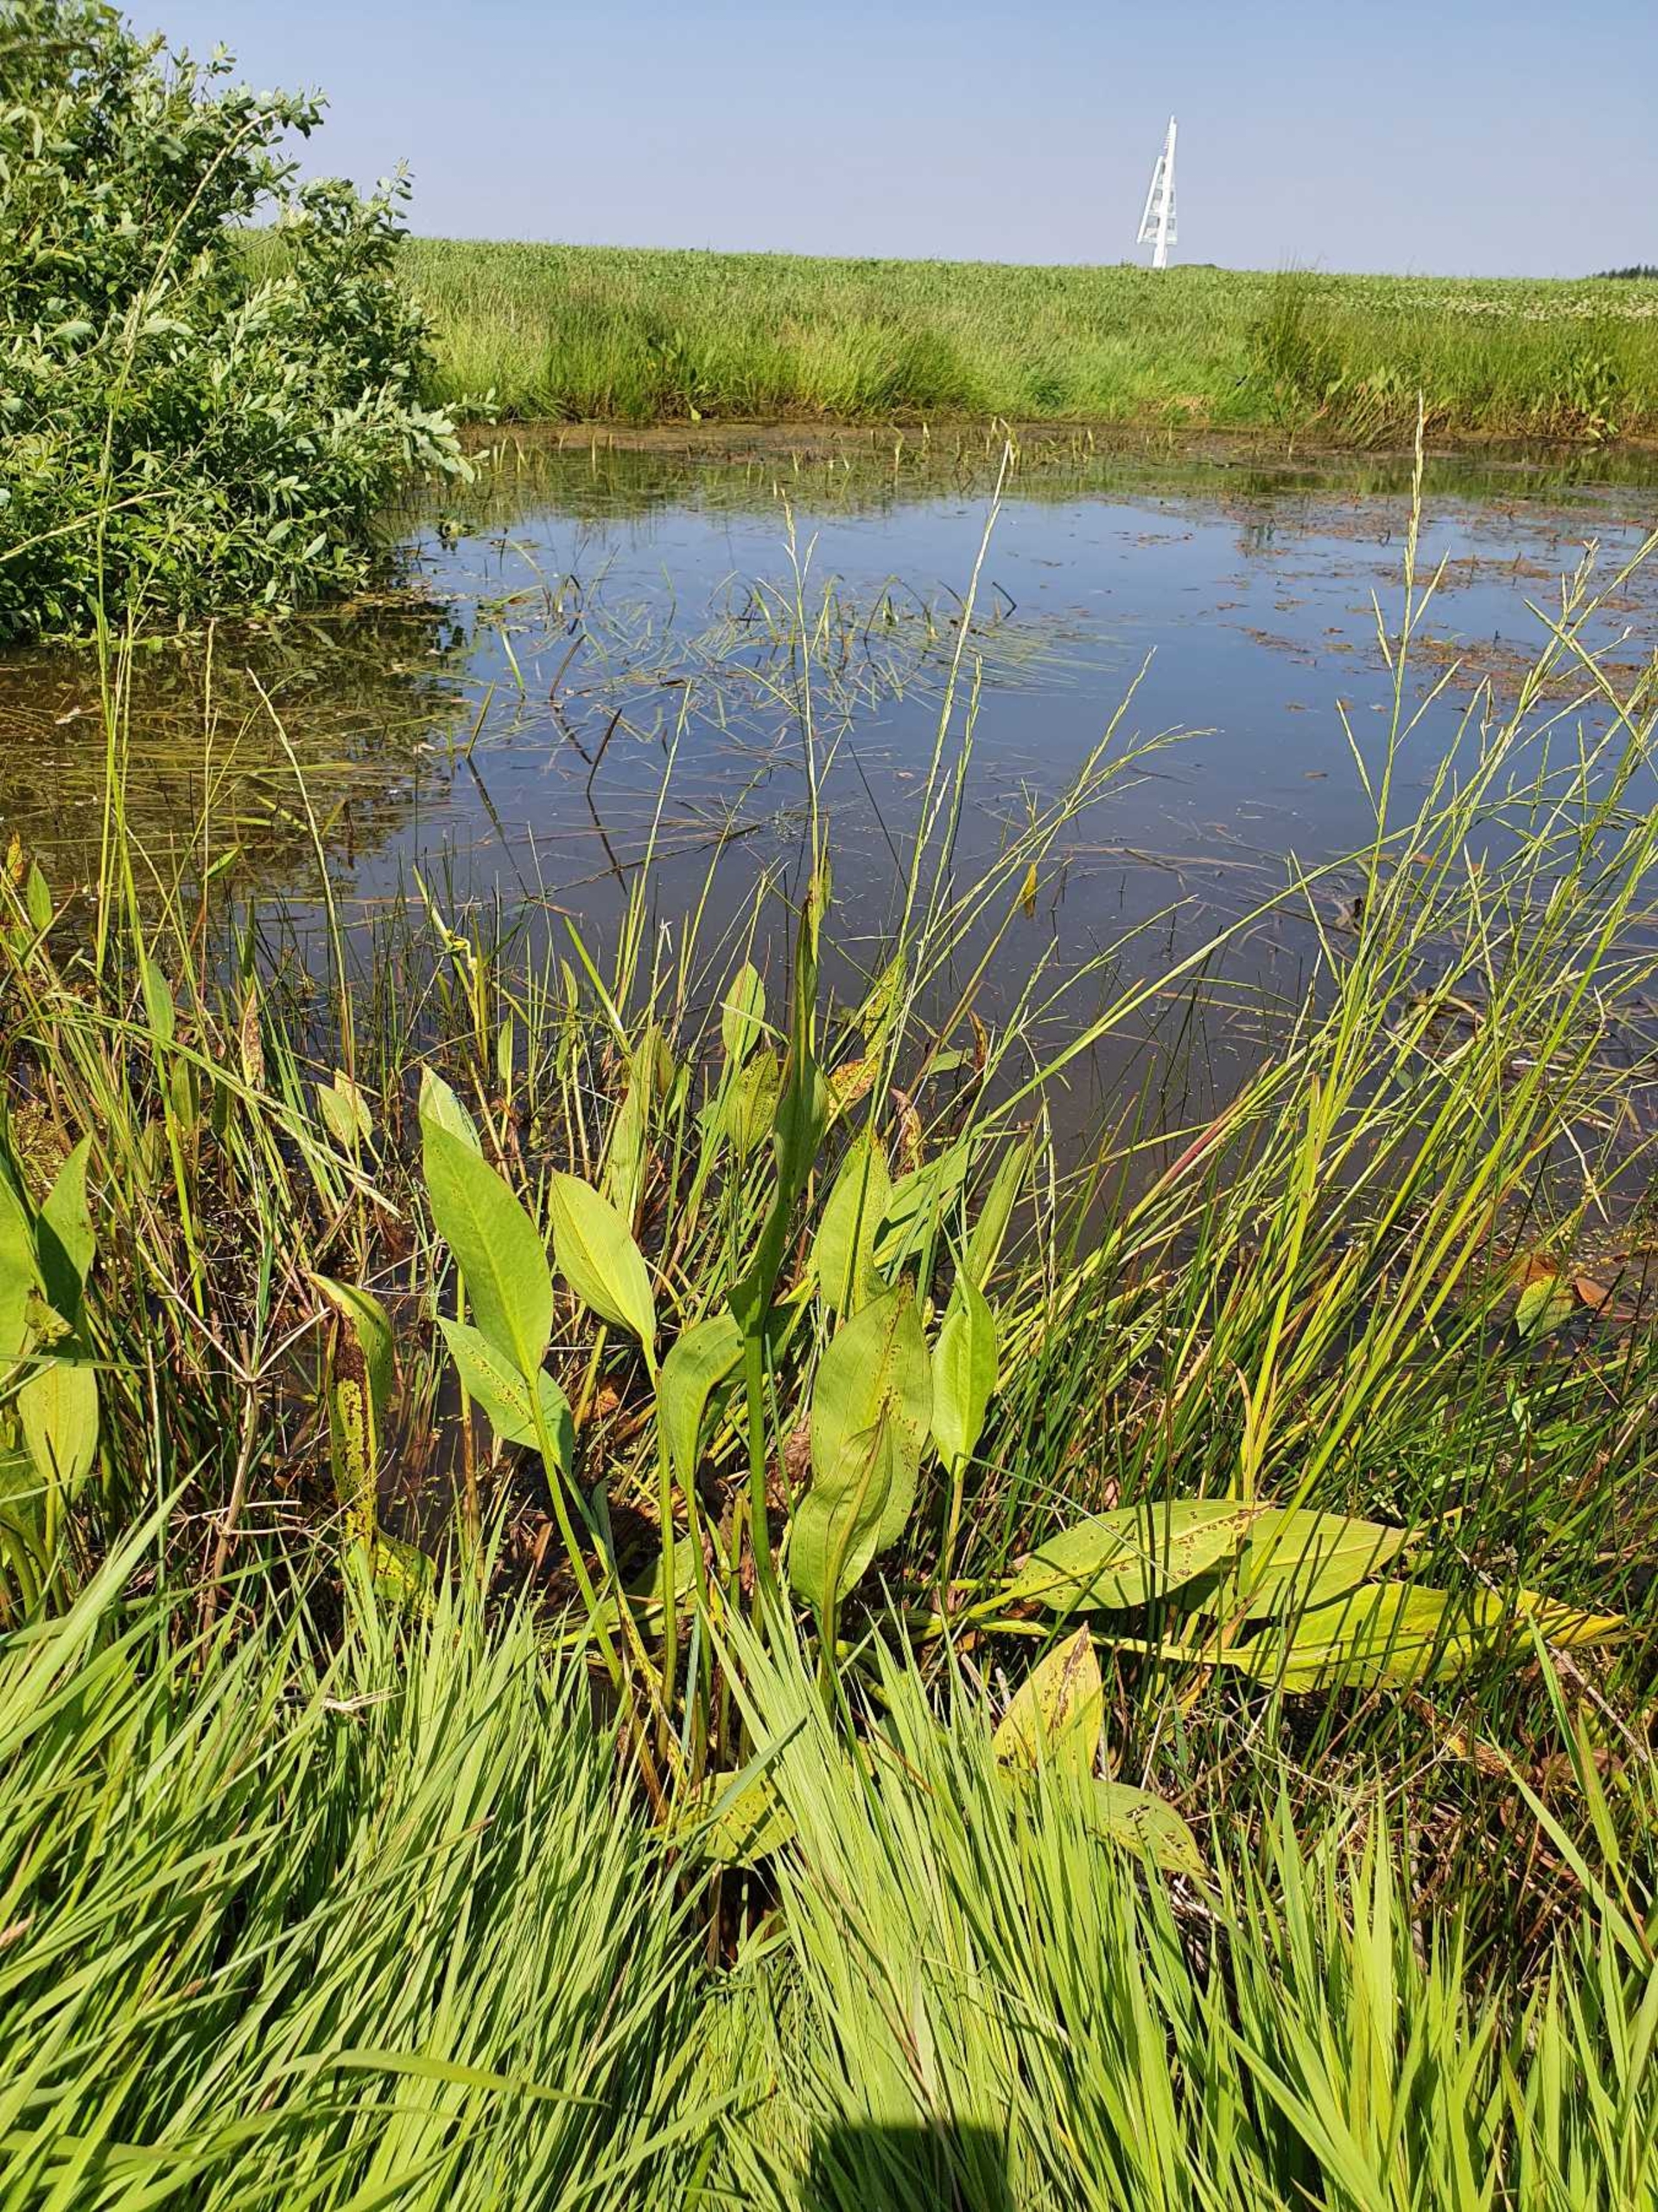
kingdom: Plantae
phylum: Tracheophyta
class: Liliopsida
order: Alismatales
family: Alismataceae
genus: Alisma
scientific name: Alisma plantago-aquatica
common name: Vejbred-skeblad
